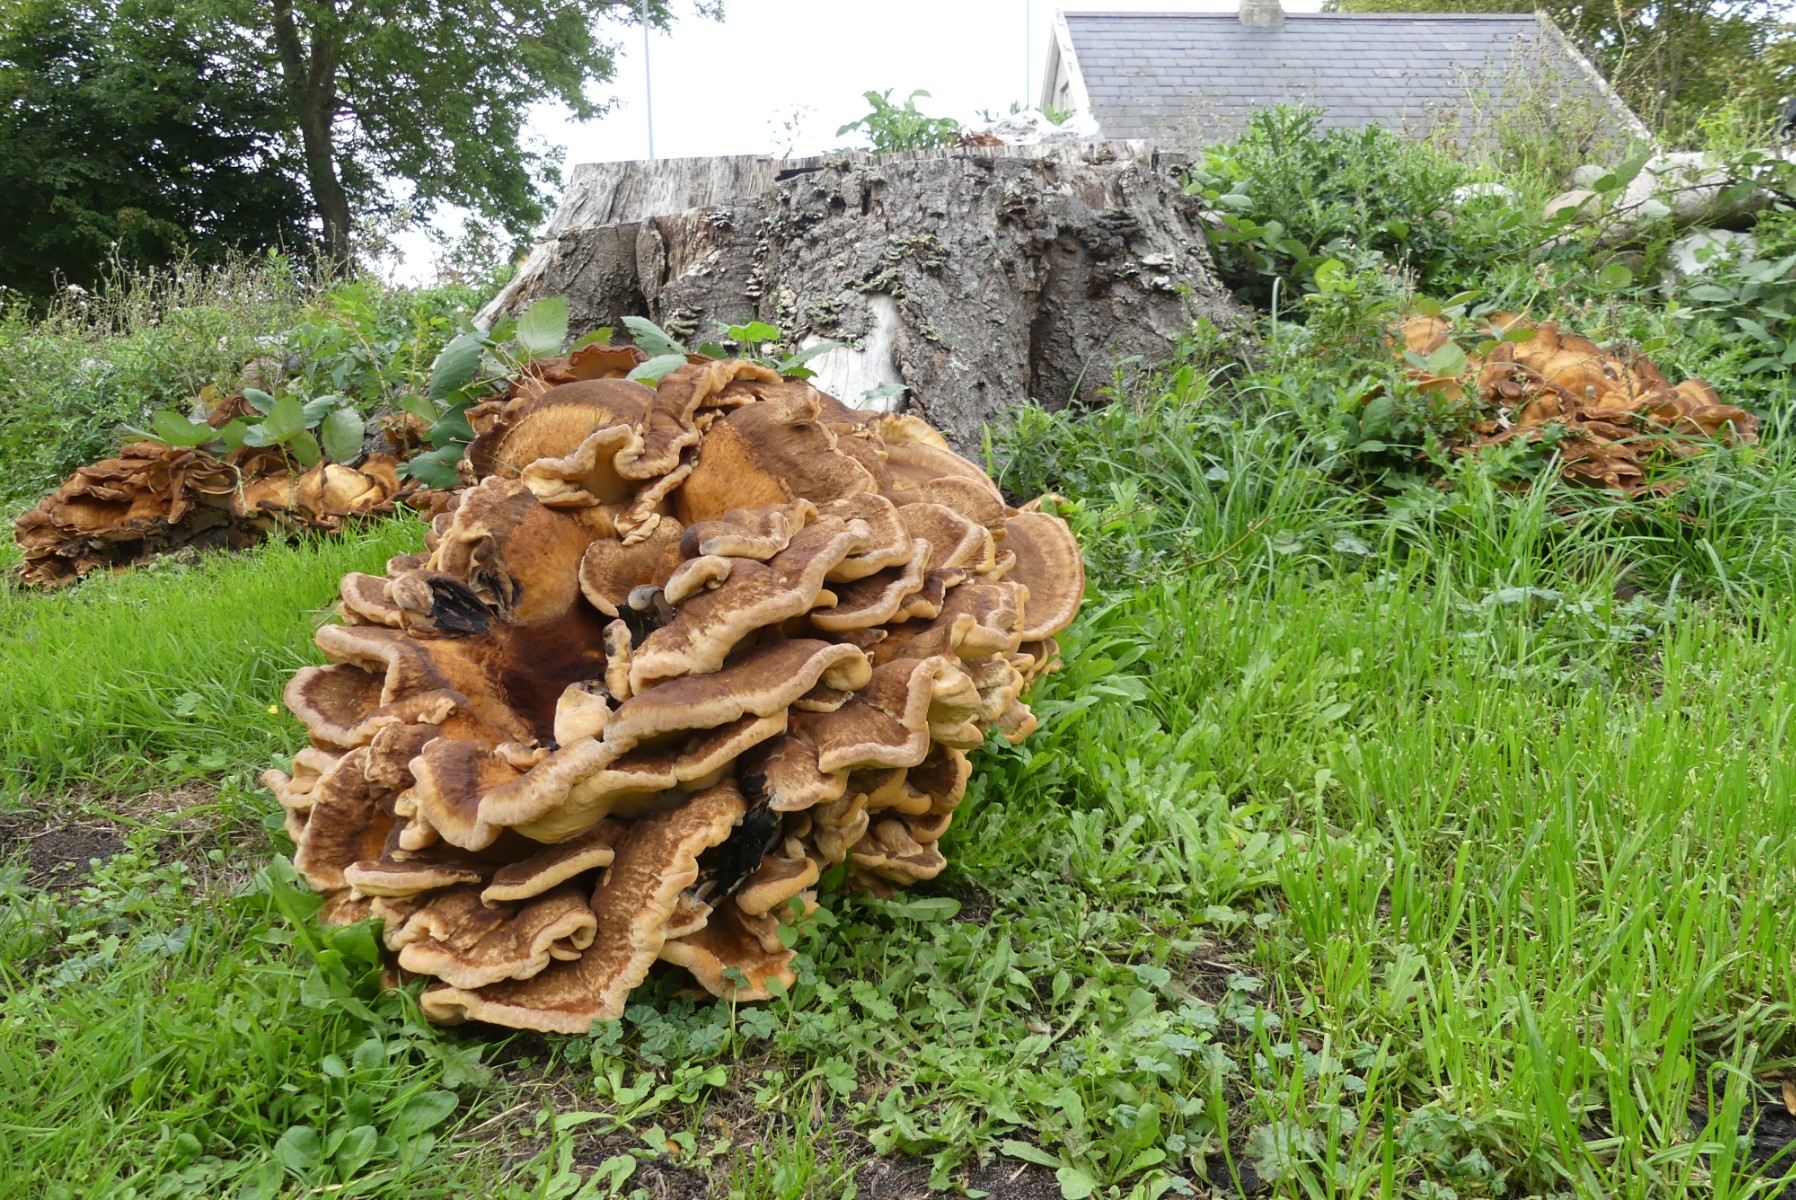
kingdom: Fungi
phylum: Basidiomycota
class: Agaricomycetes
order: Polyporales
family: Meripilaceae
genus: Meripilus
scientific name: Meripilus giganteus
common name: kæmpeporesvamp
